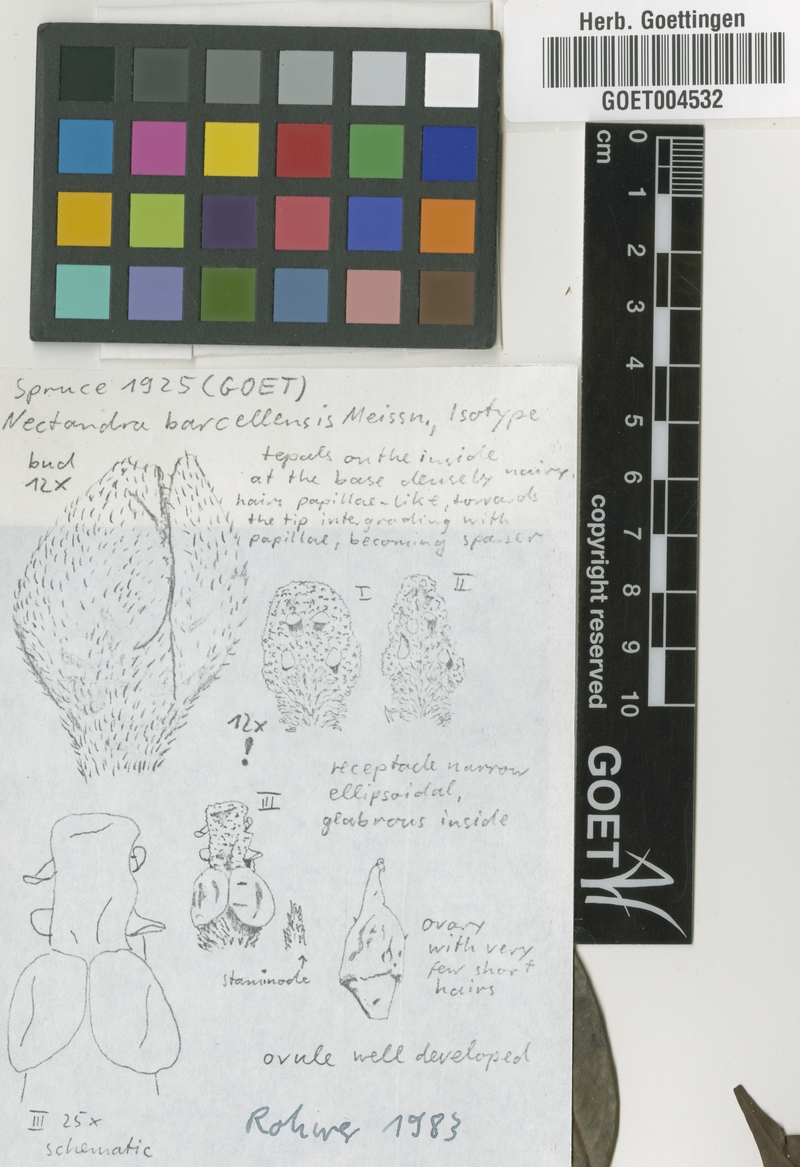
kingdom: Plantae
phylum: Tracheophyta
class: Magnoliopsida
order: Laurales
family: Lauraceae
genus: Mespilodaphne
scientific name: Mespilodaphne cymbarum
